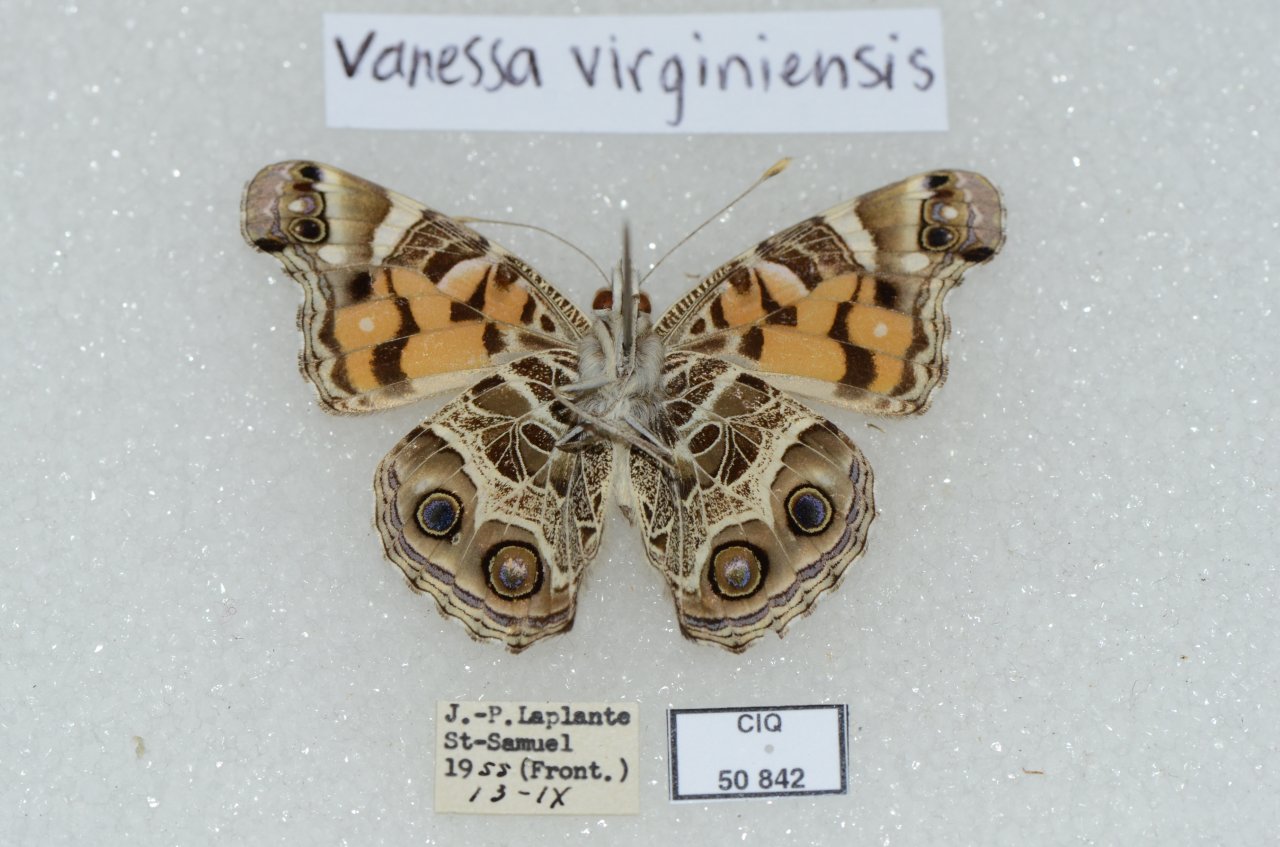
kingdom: Animalia
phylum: Arthropoda
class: Insecta
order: Lepidoptera
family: Nymphalidae
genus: Vanessa
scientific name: Vanessa virginiensis
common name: American Lady
